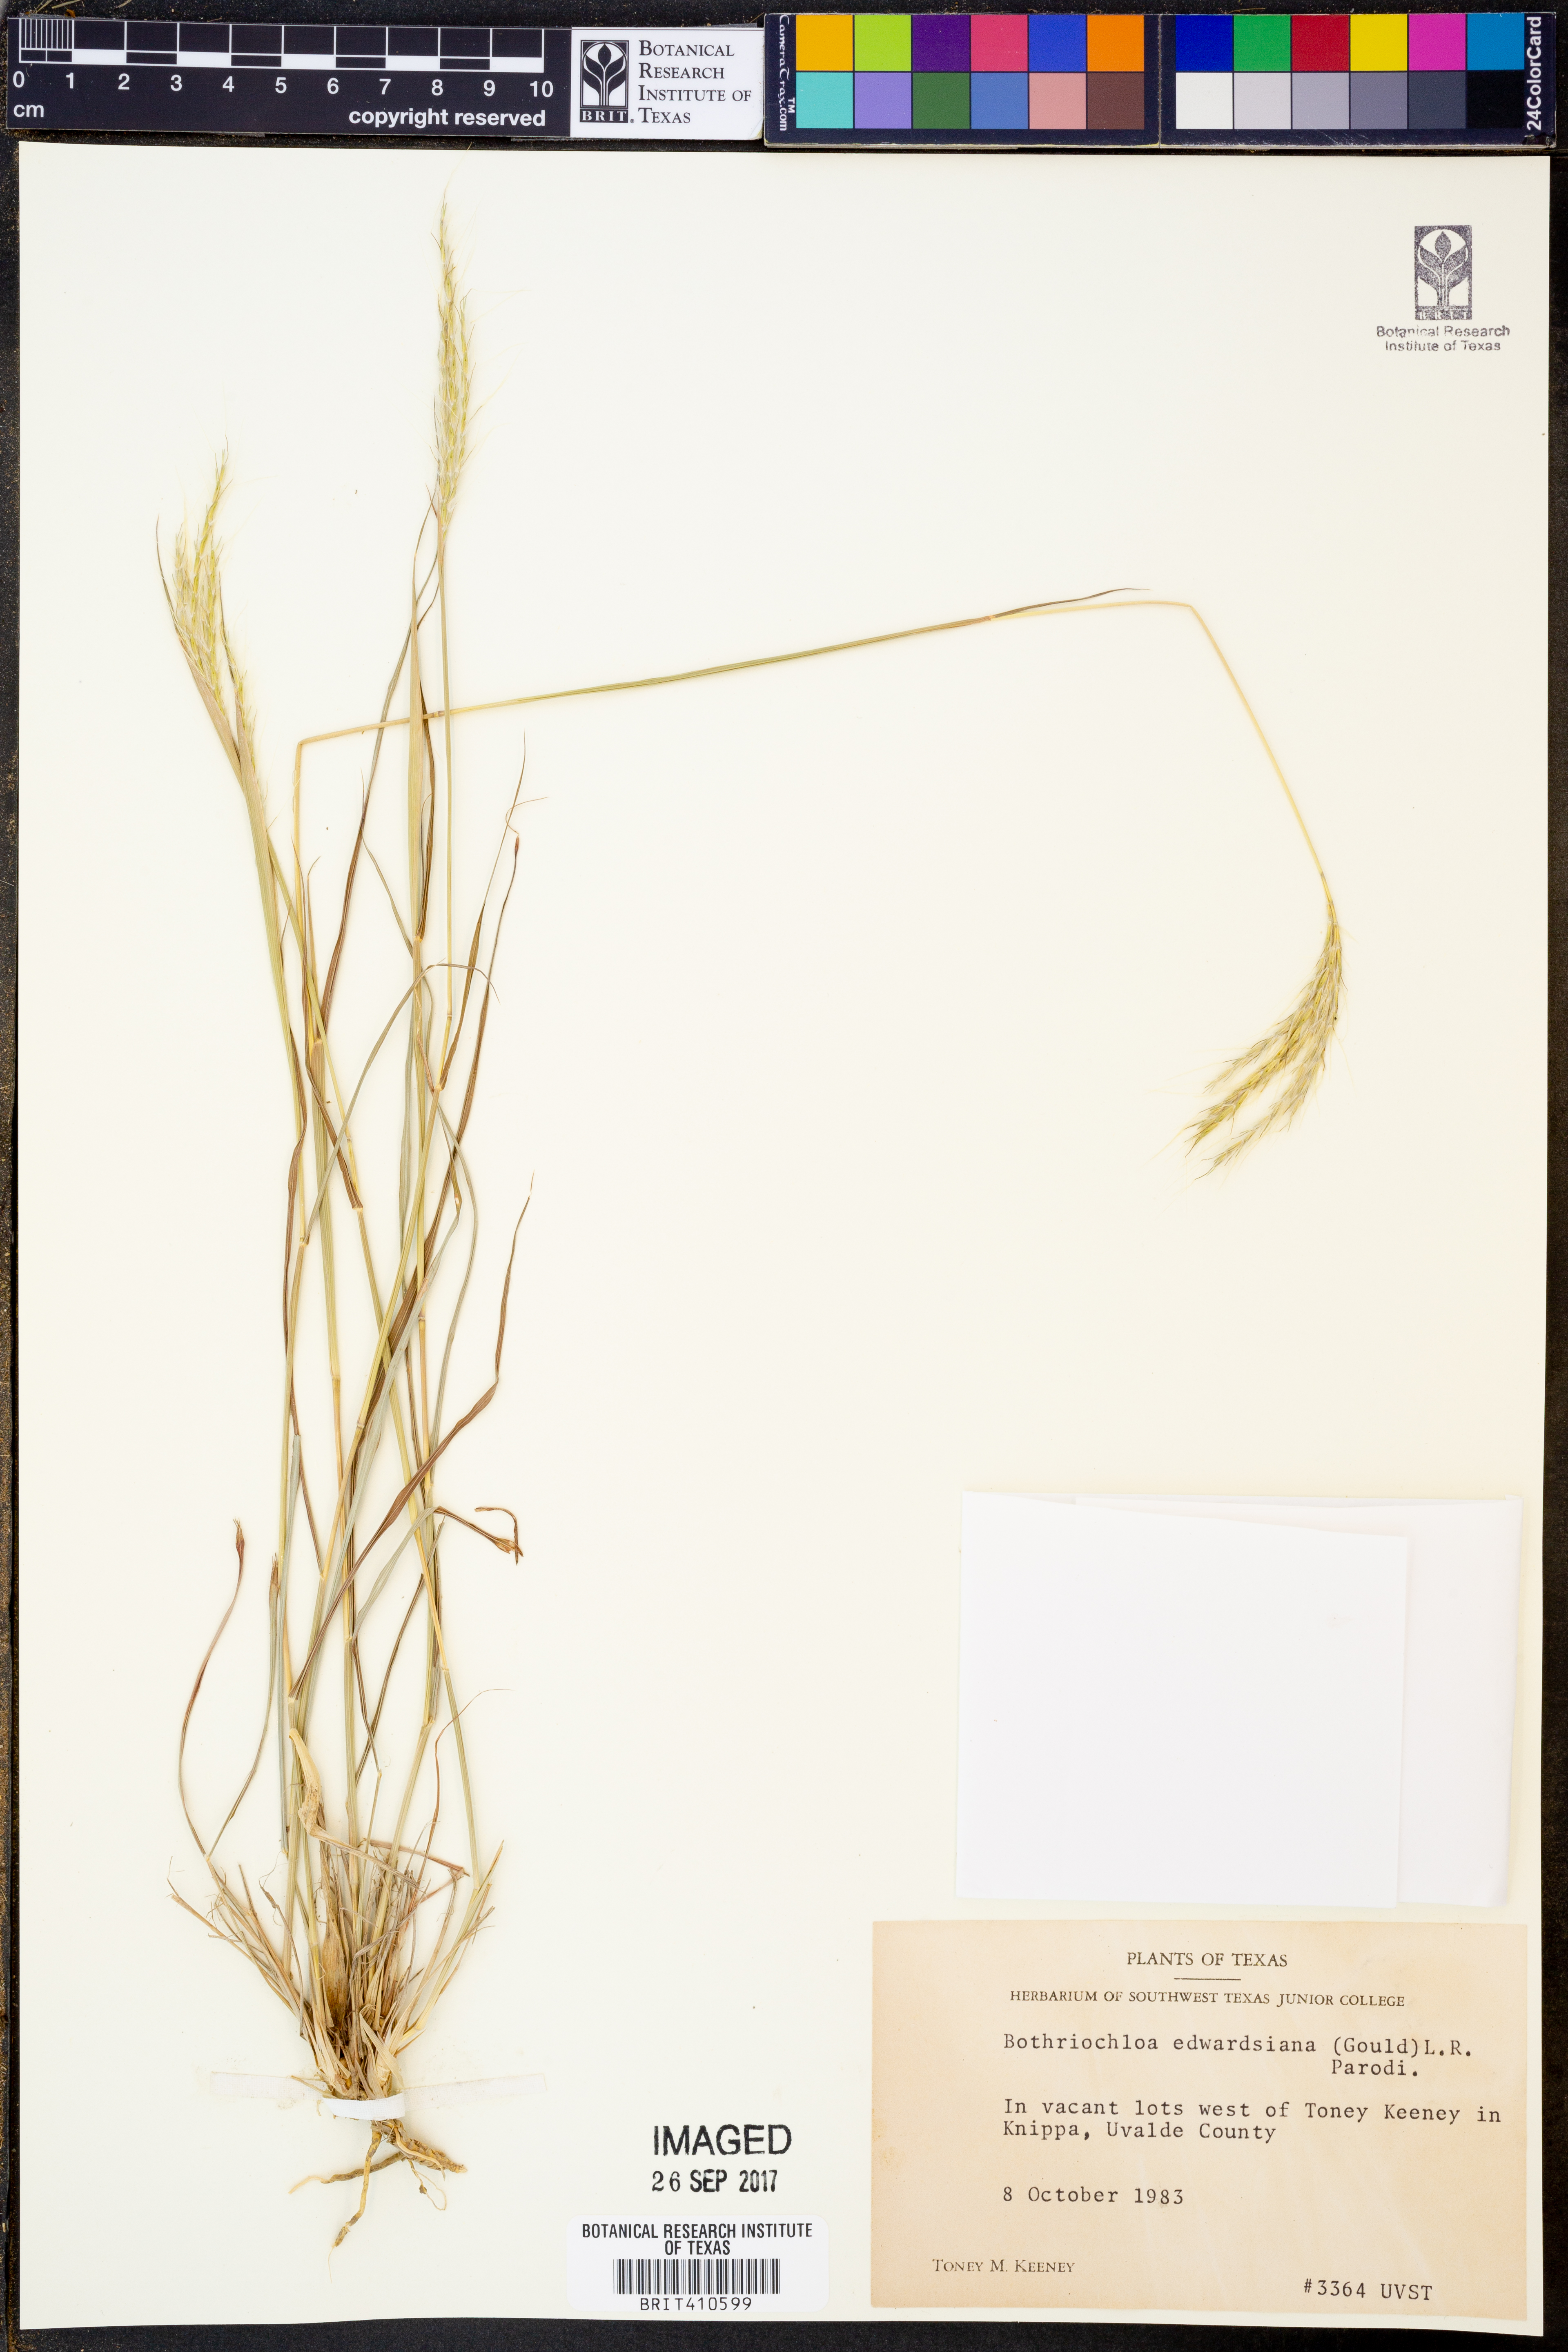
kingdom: Plantae
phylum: Tracheophyta
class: Liliopsida
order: Poales
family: Poaceae
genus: Bothriochloa
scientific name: Bothriochloa edwardsiana
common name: Merrill's bluestem
